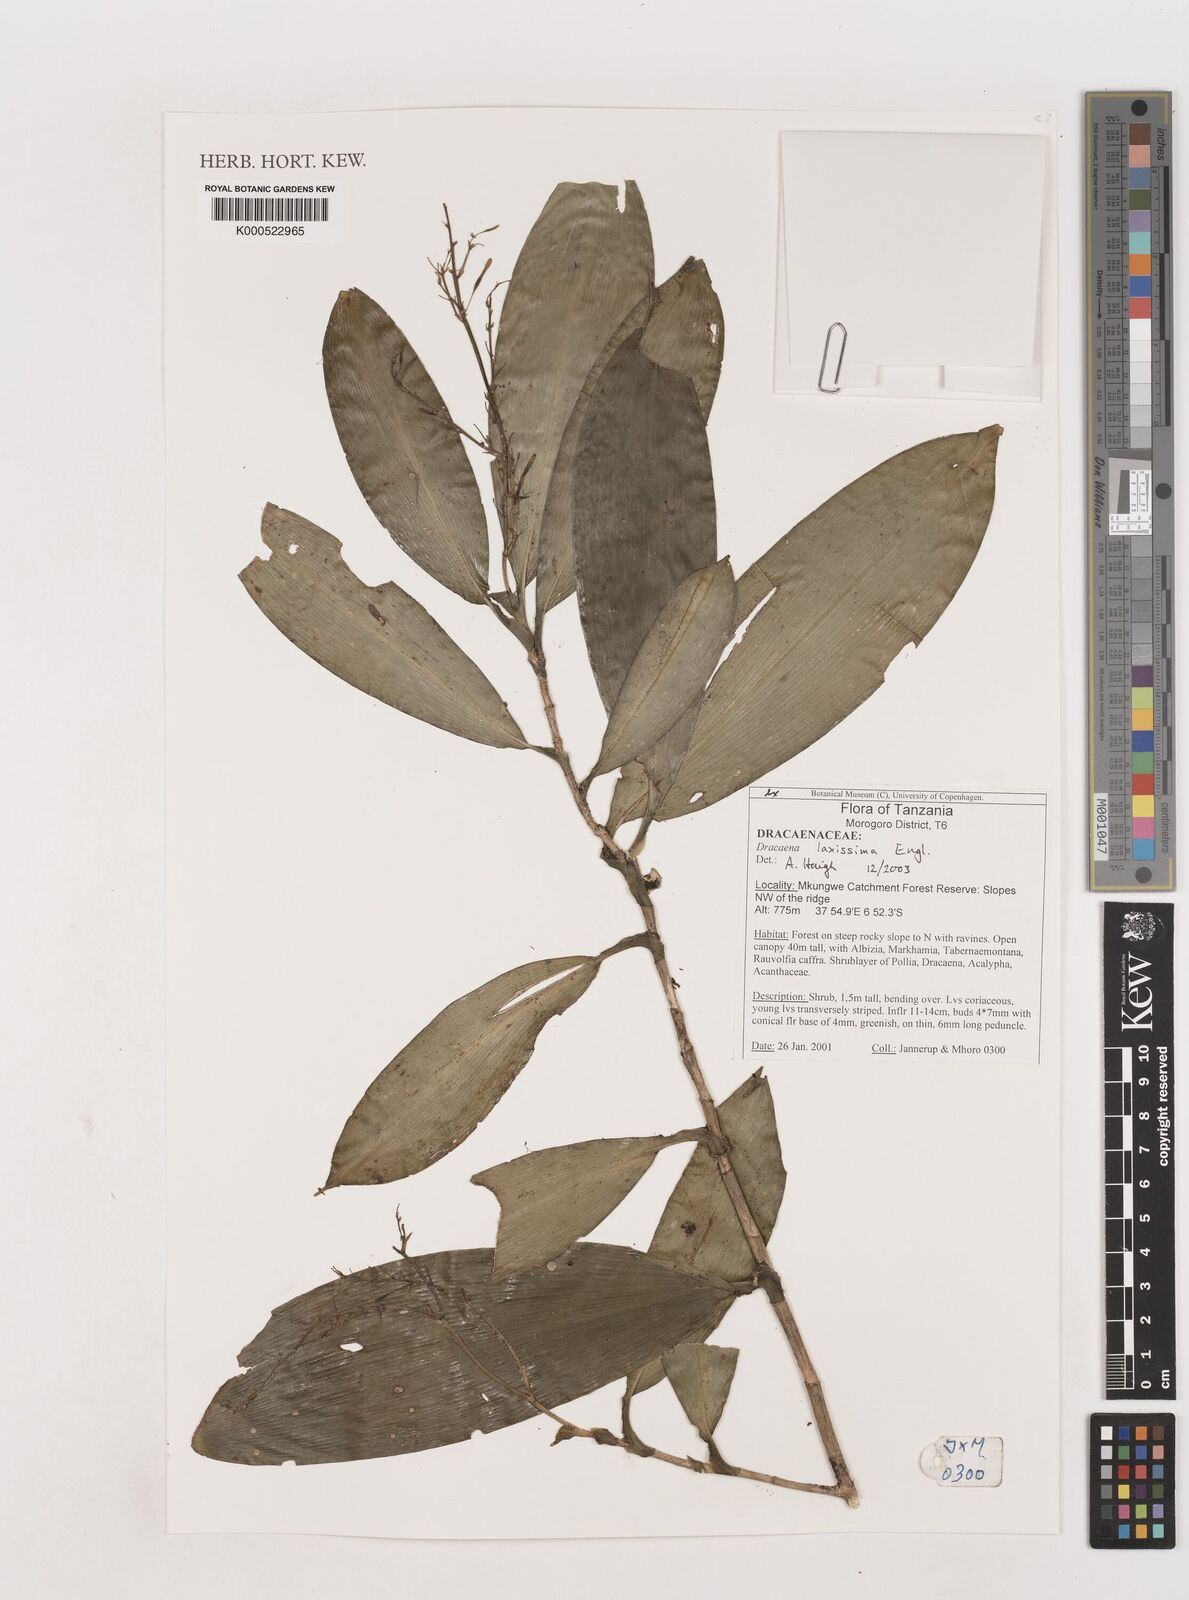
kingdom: Plantae
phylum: Tracheophyta
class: Liliopsida
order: Asparagales
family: Asparagaceae
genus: Dracaena
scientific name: Dracaena laxissima
